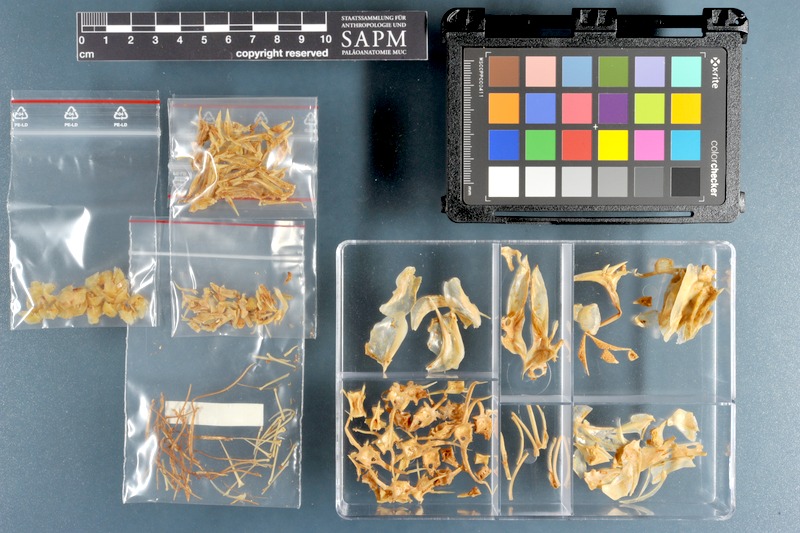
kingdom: Animalia
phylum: Chordata
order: Perciformes
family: Carangidae
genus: Alepes
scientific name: Alepes djedaba
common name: Shrimp scad
